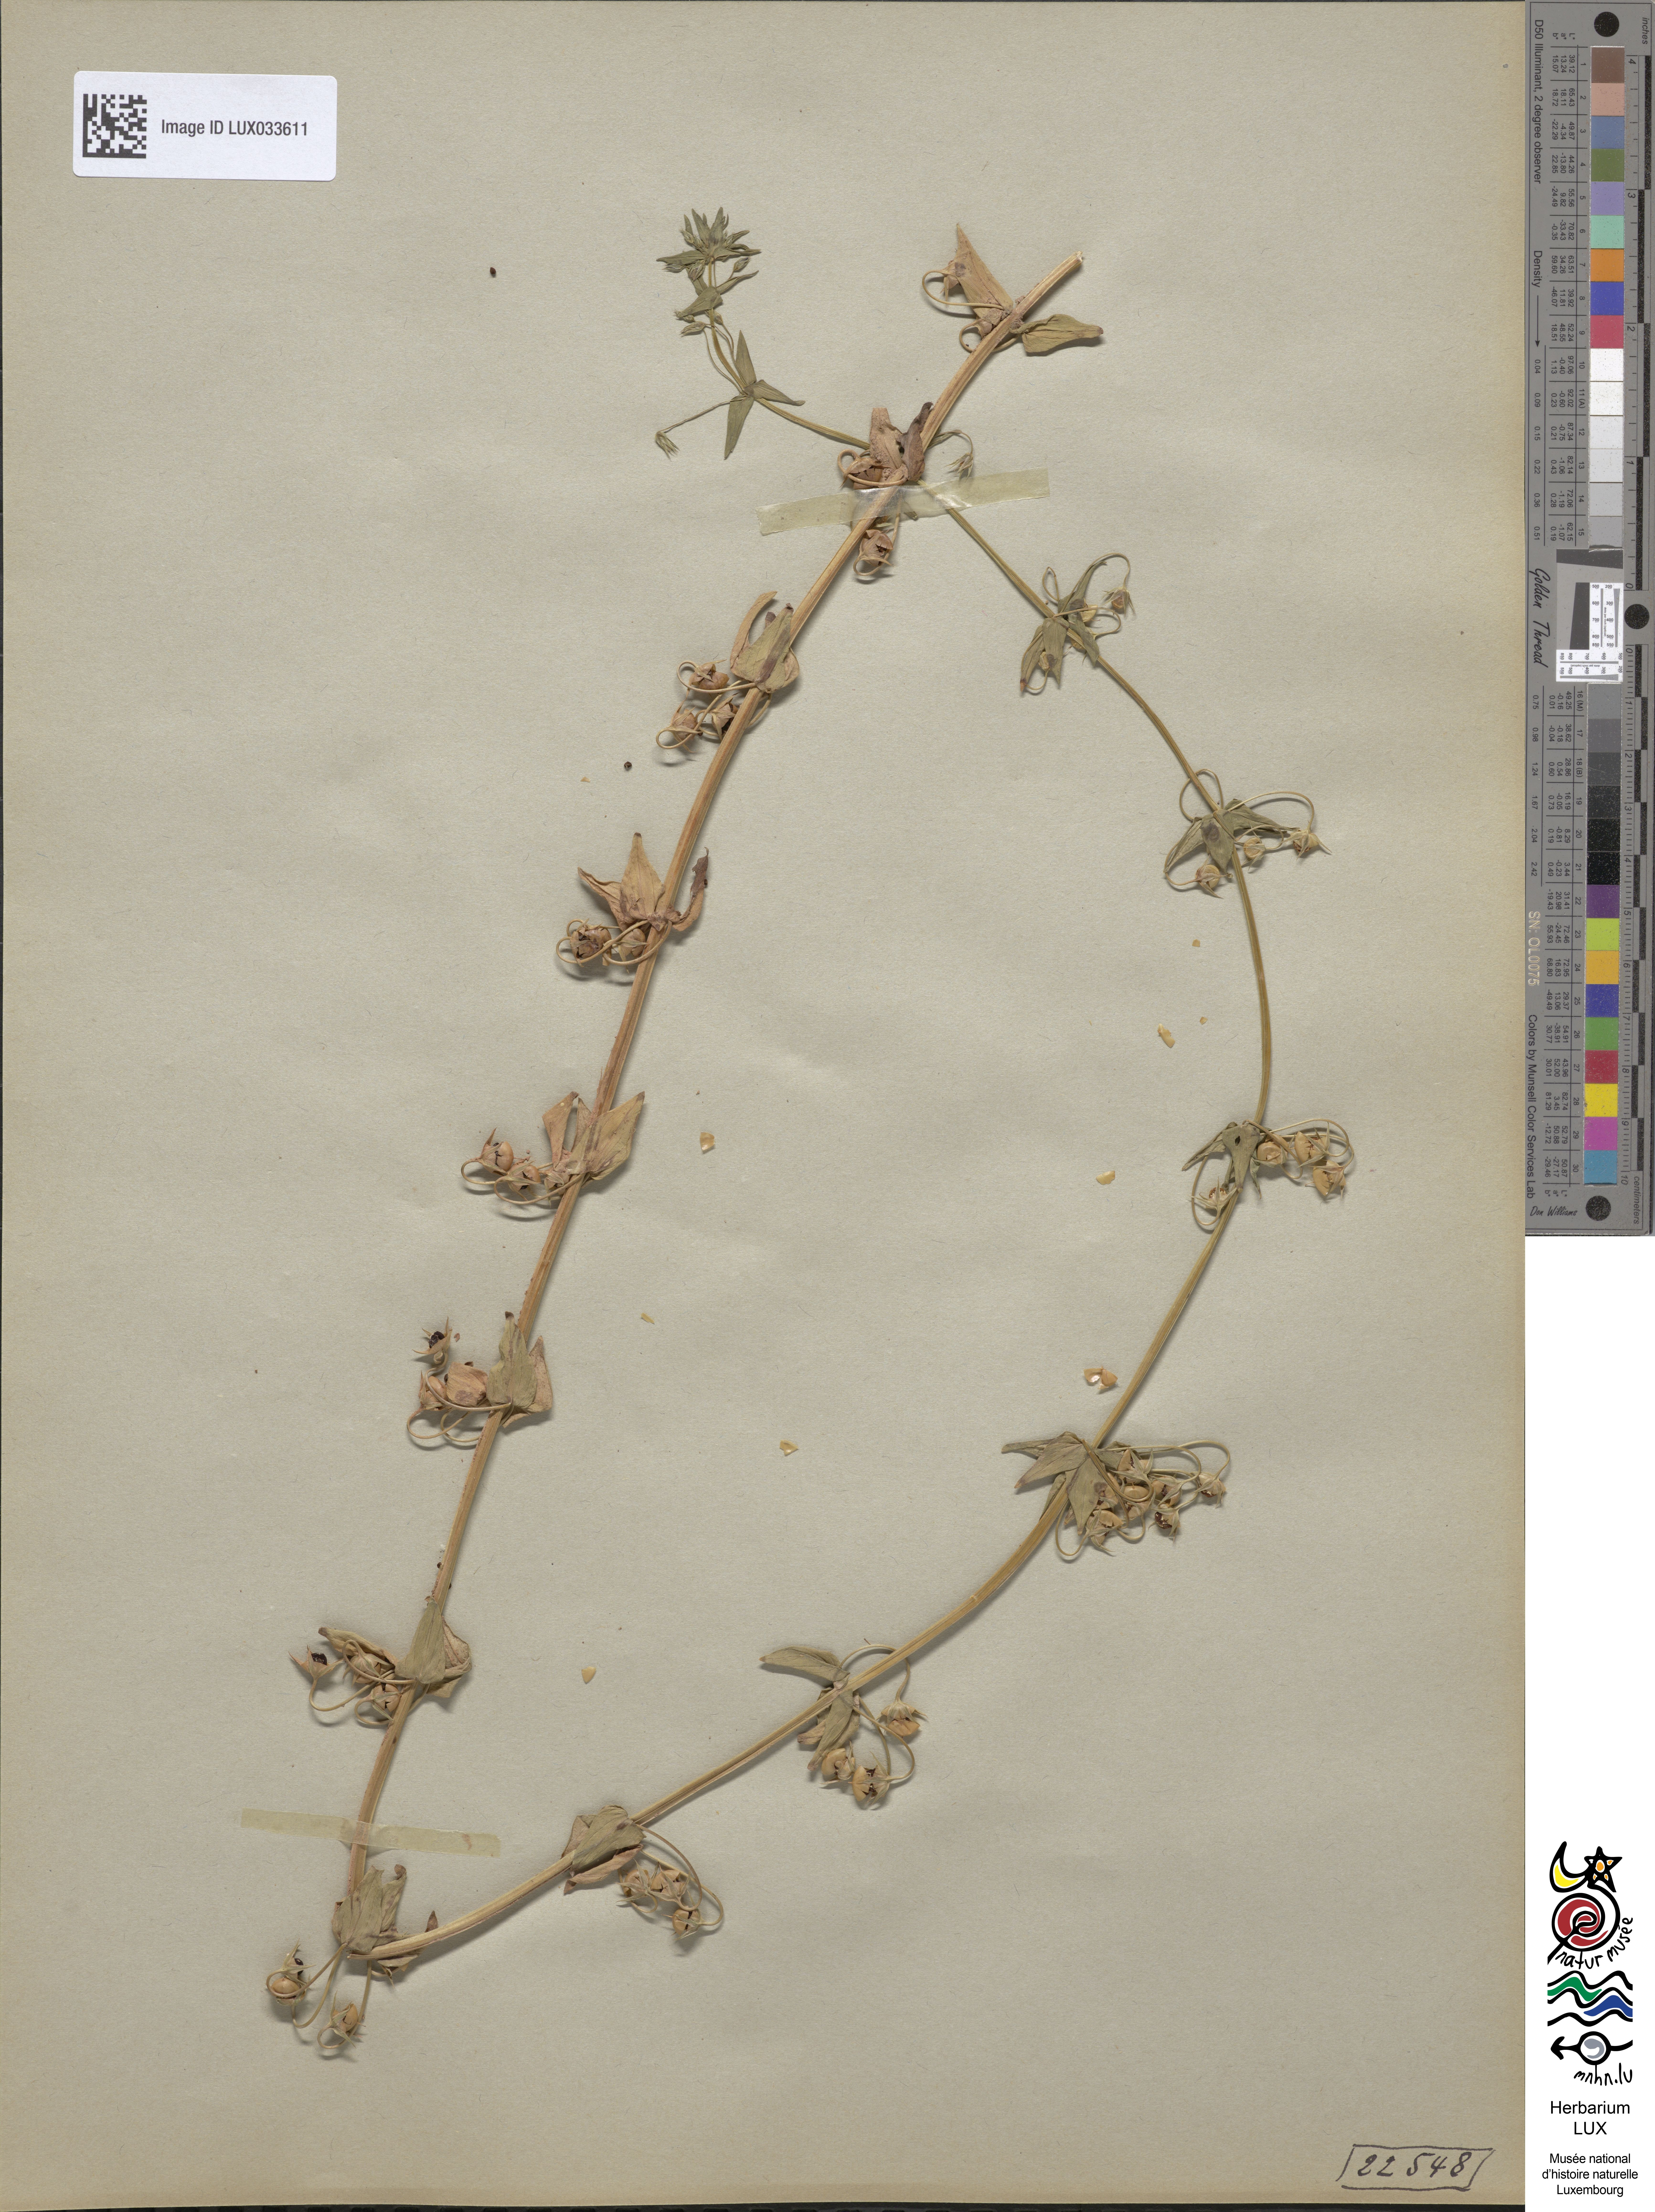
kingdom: Plantae
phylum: Tracheophyta
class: Magnoliopsida
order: Ericales
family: Primulaceae
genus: Lysimachia
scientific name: Lysimachia loeflingii
